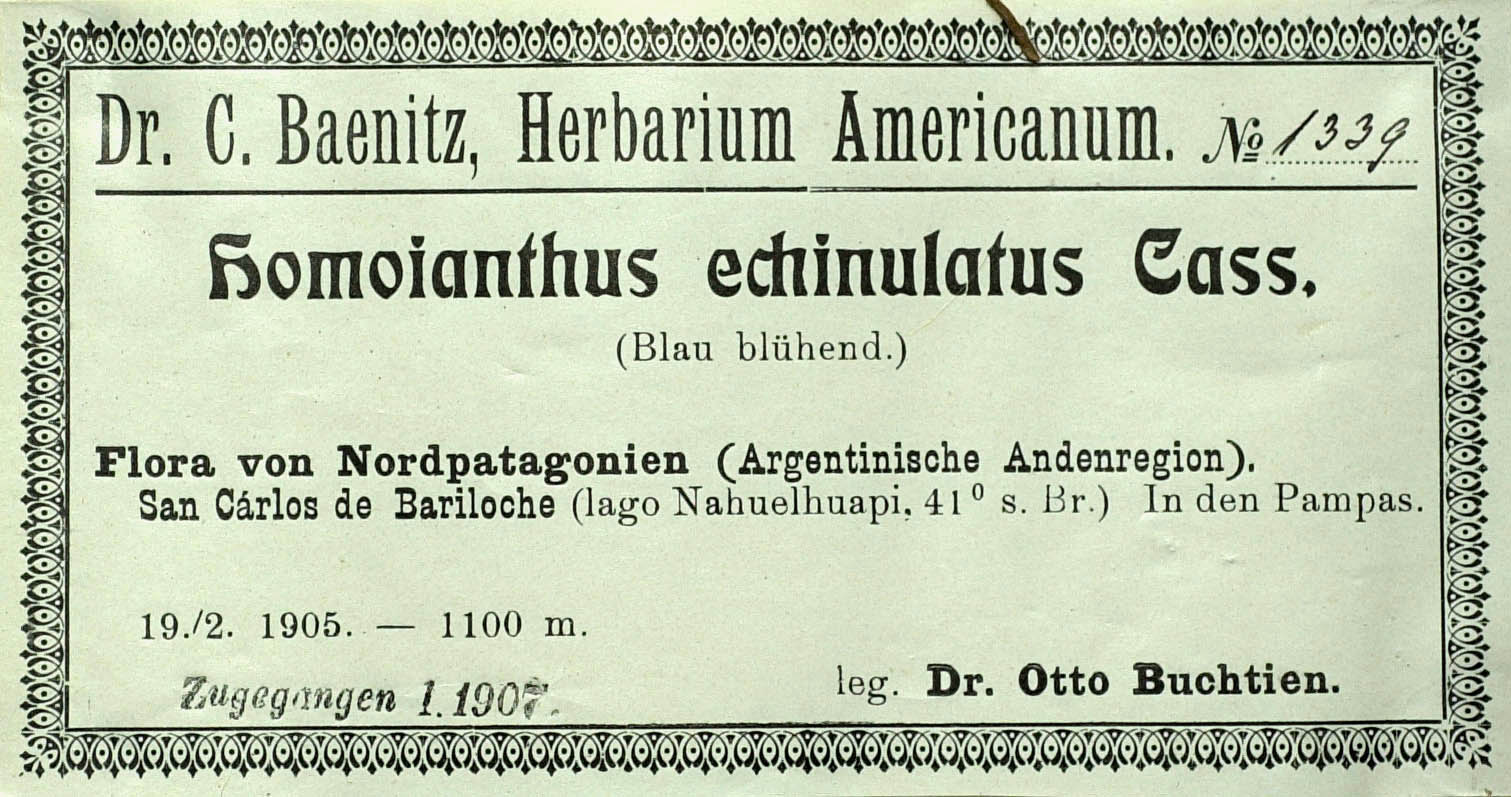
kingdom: Plantae
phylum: Tracheophyta
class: Magnoliopsida
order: Asterales
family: Asteraceae
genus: Perezia
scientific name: Perezia recurvata
